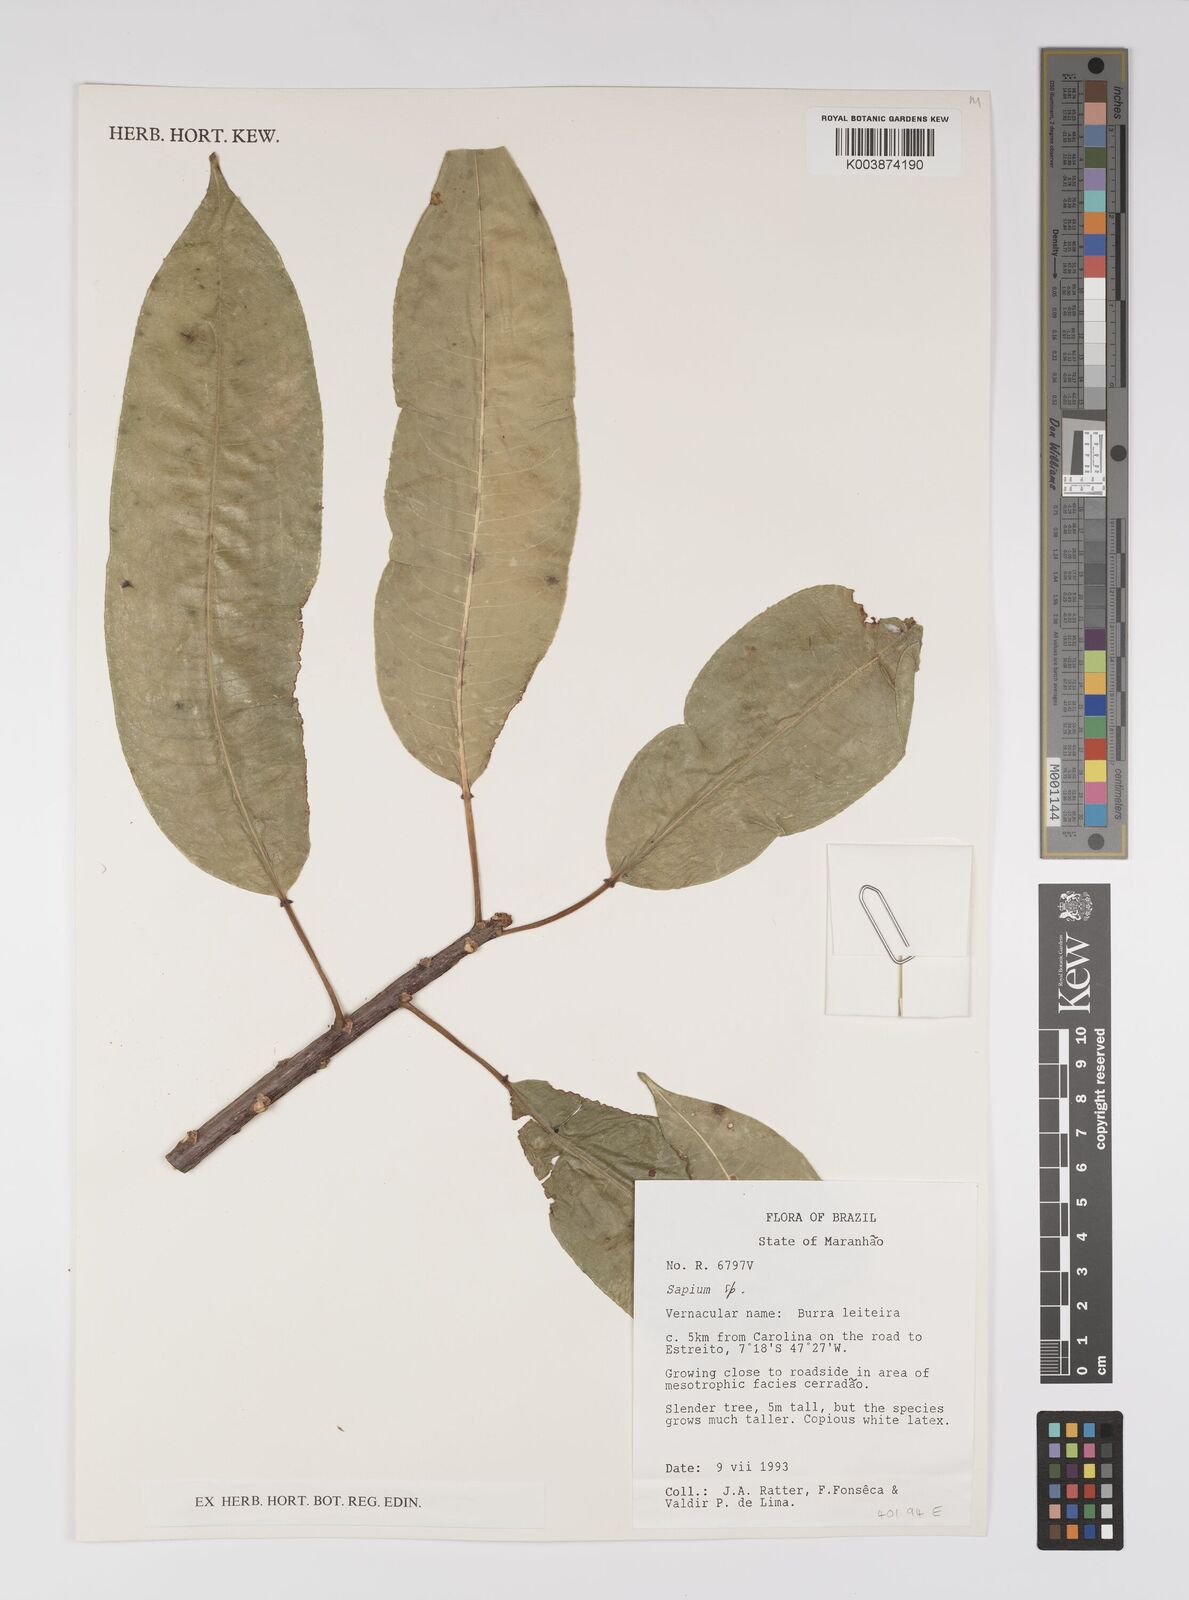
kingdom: Plantae
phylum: Tracheophyta
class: Magnoliopsida
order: Malpighiales
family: Euphorbiaceae
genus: Sapium
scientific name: Sapium
